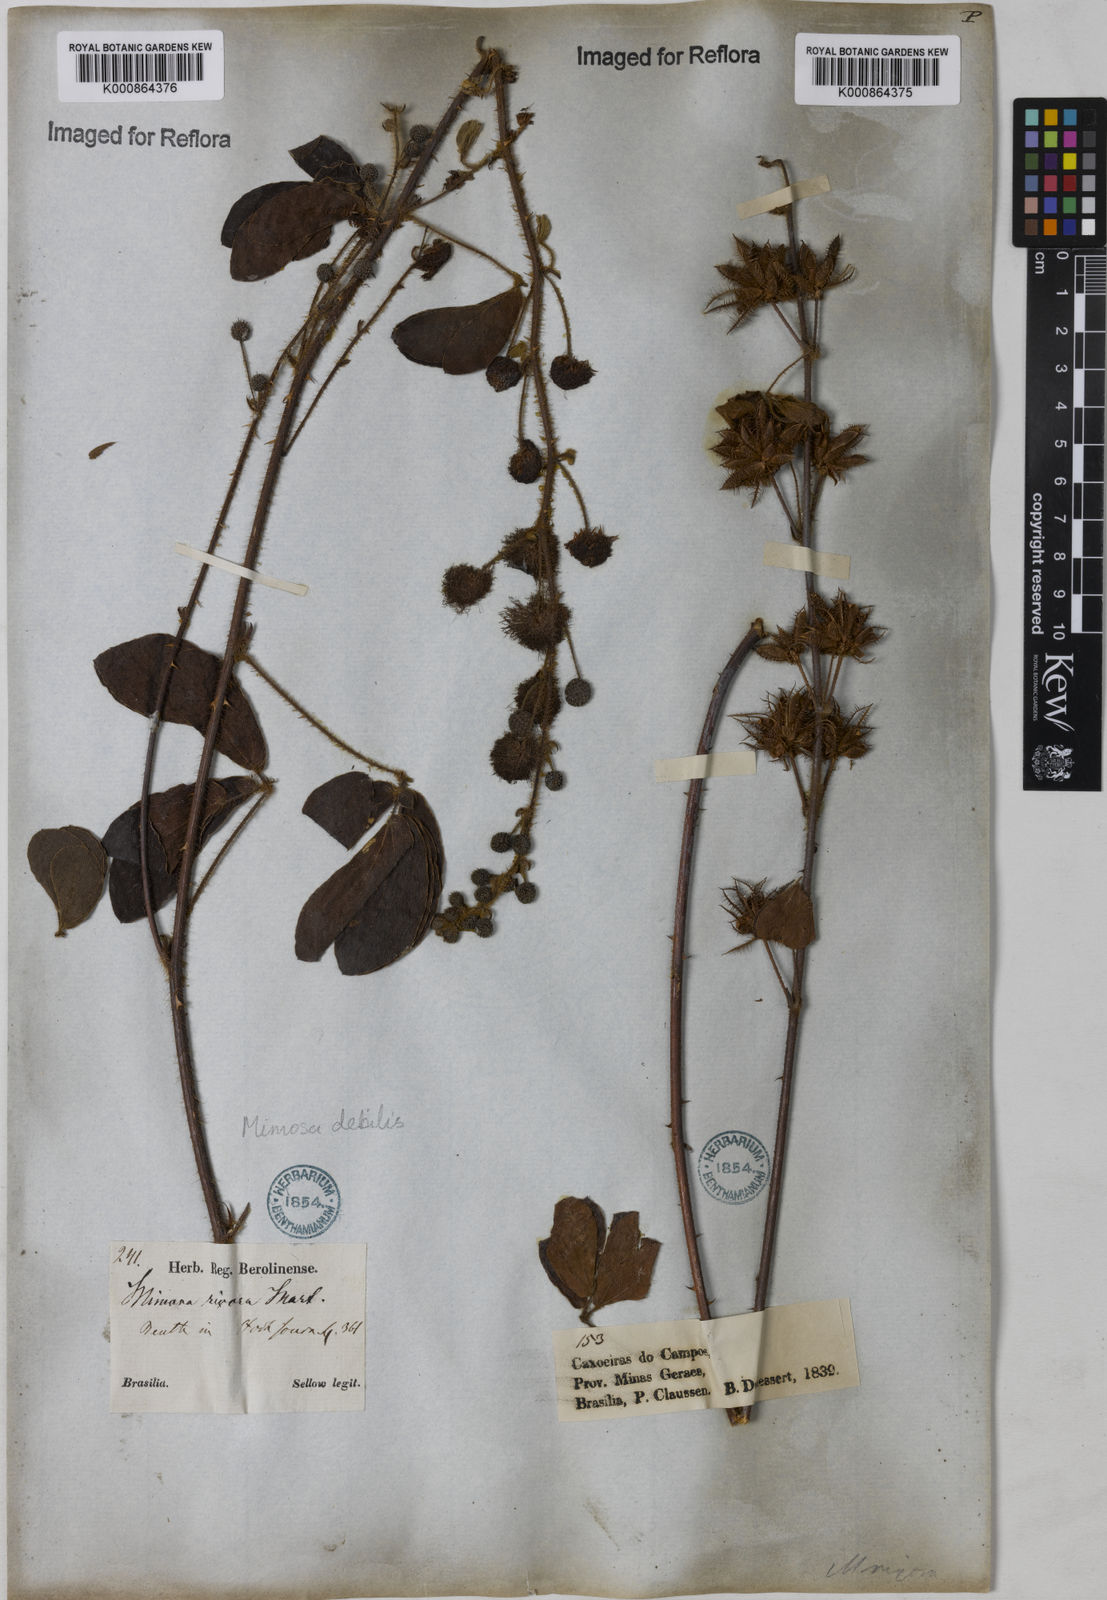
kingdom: Plantae
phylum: Tracheophyta
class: Magnoliopsida
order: Fabales
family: Fabaceae
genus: Mimosa
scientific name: Mimosa debilis
